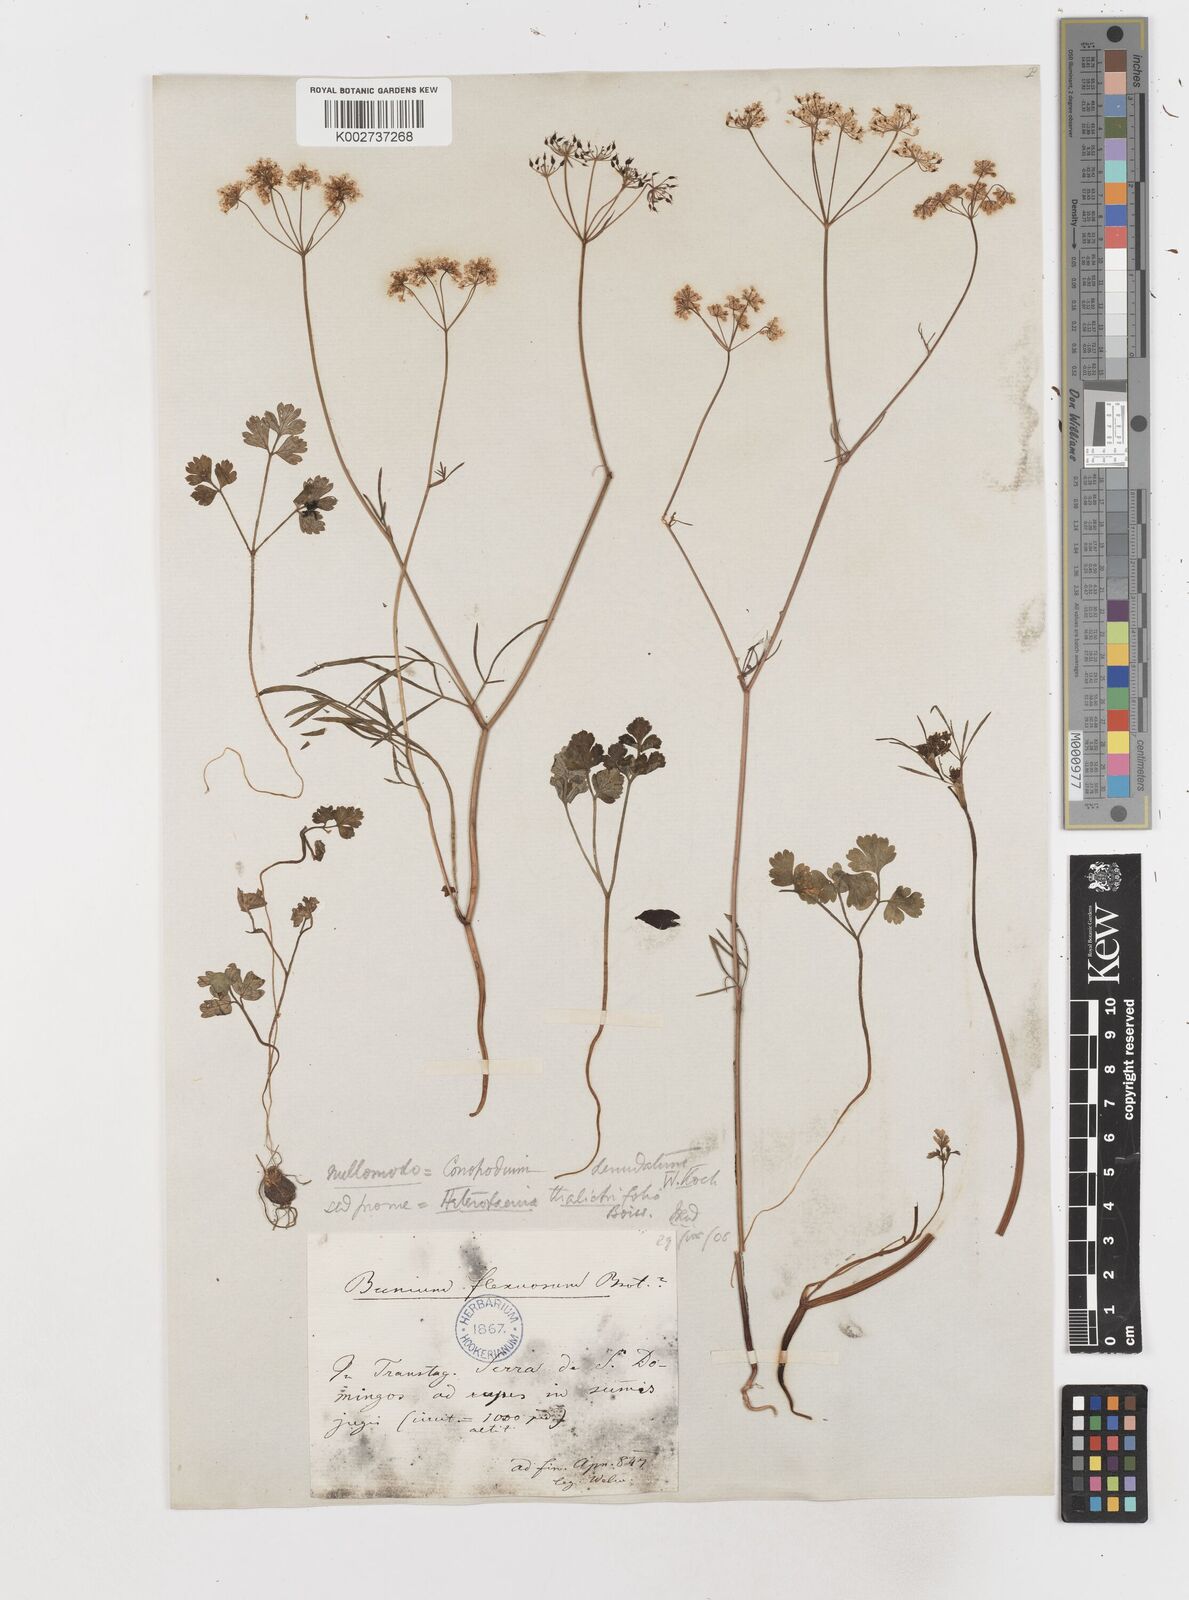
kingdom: Plantae
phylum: Tracheophyta
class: Magnoliopsida
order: Apiales
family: Apiaceae
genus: Conopodium
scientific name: Conopodium thalictrifolium
